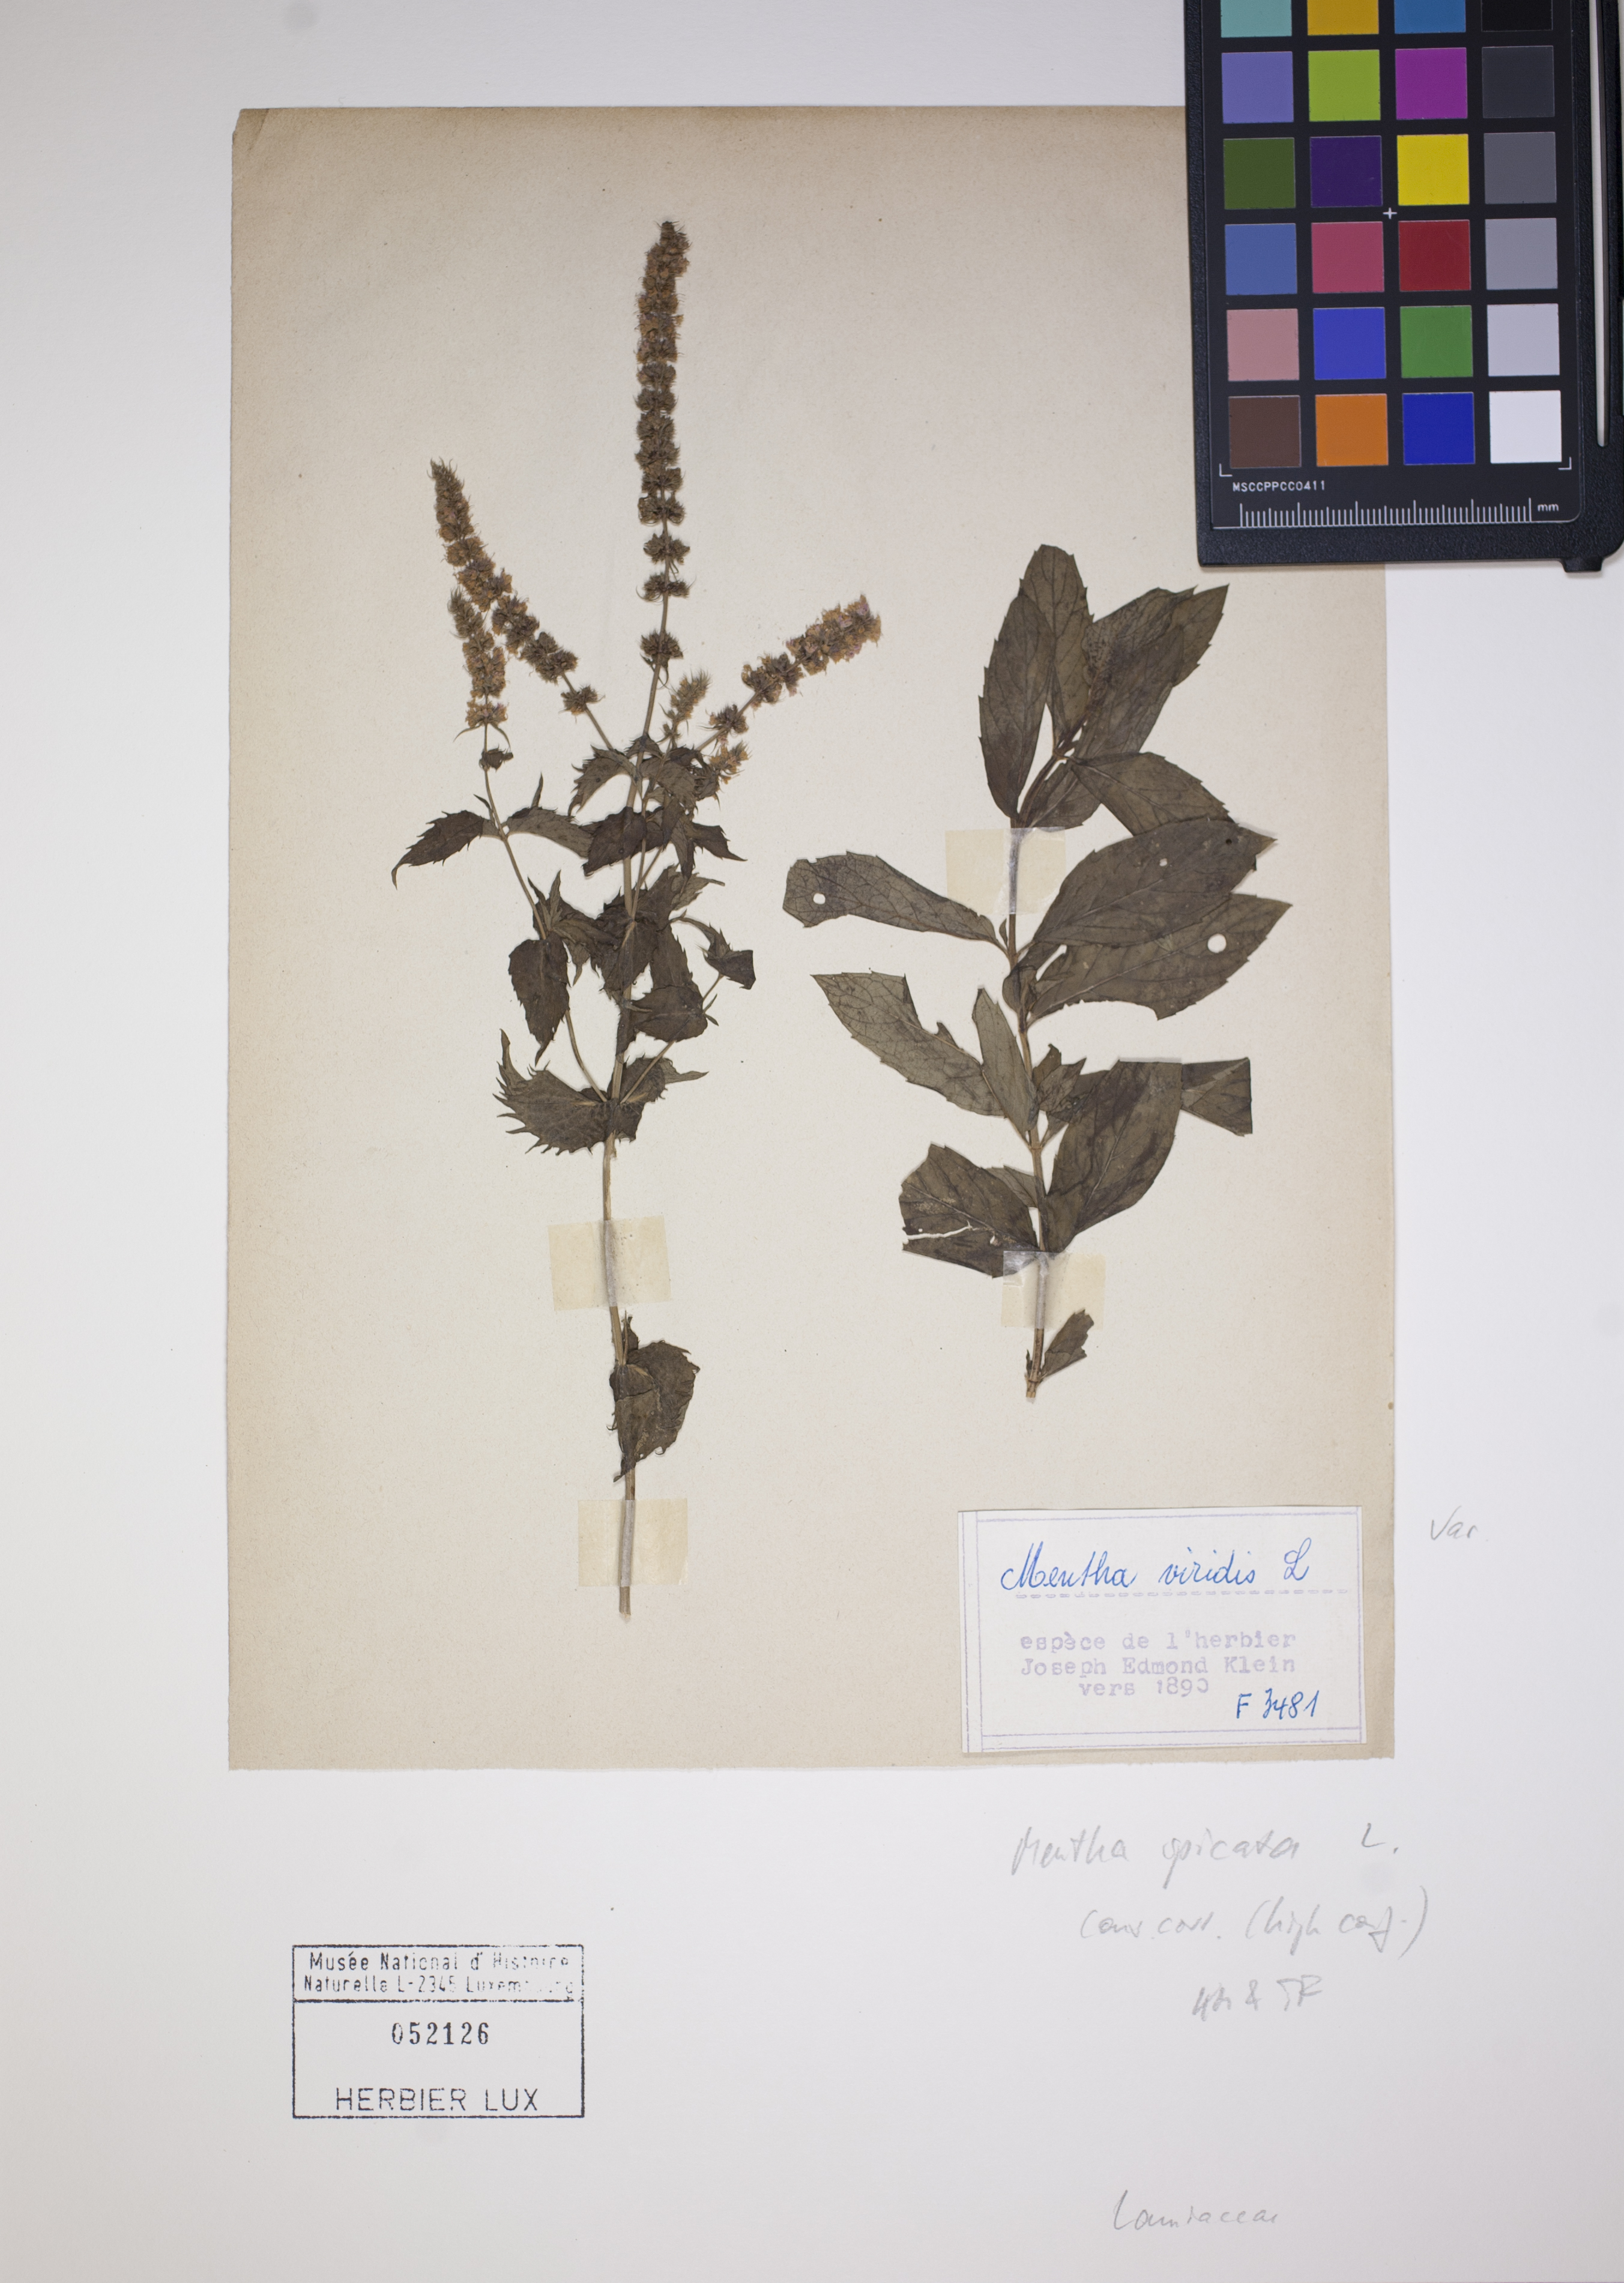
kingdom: Plantae
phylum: Tracheophyta
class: Magnoliopsida
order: Lamiales
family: Lamiaceae
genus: Mentha
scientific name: Mentha spicata
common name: Spearmint
